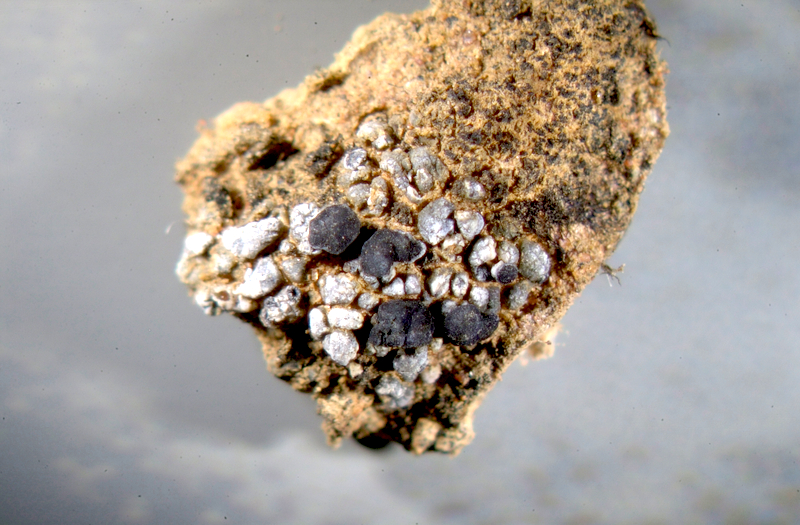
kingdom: Fungi
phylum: Ascomycota
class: Lecanoromycetes
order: Lecanorales
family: Ramalinaceae
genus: Bibbya
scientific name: Bibbya australis
